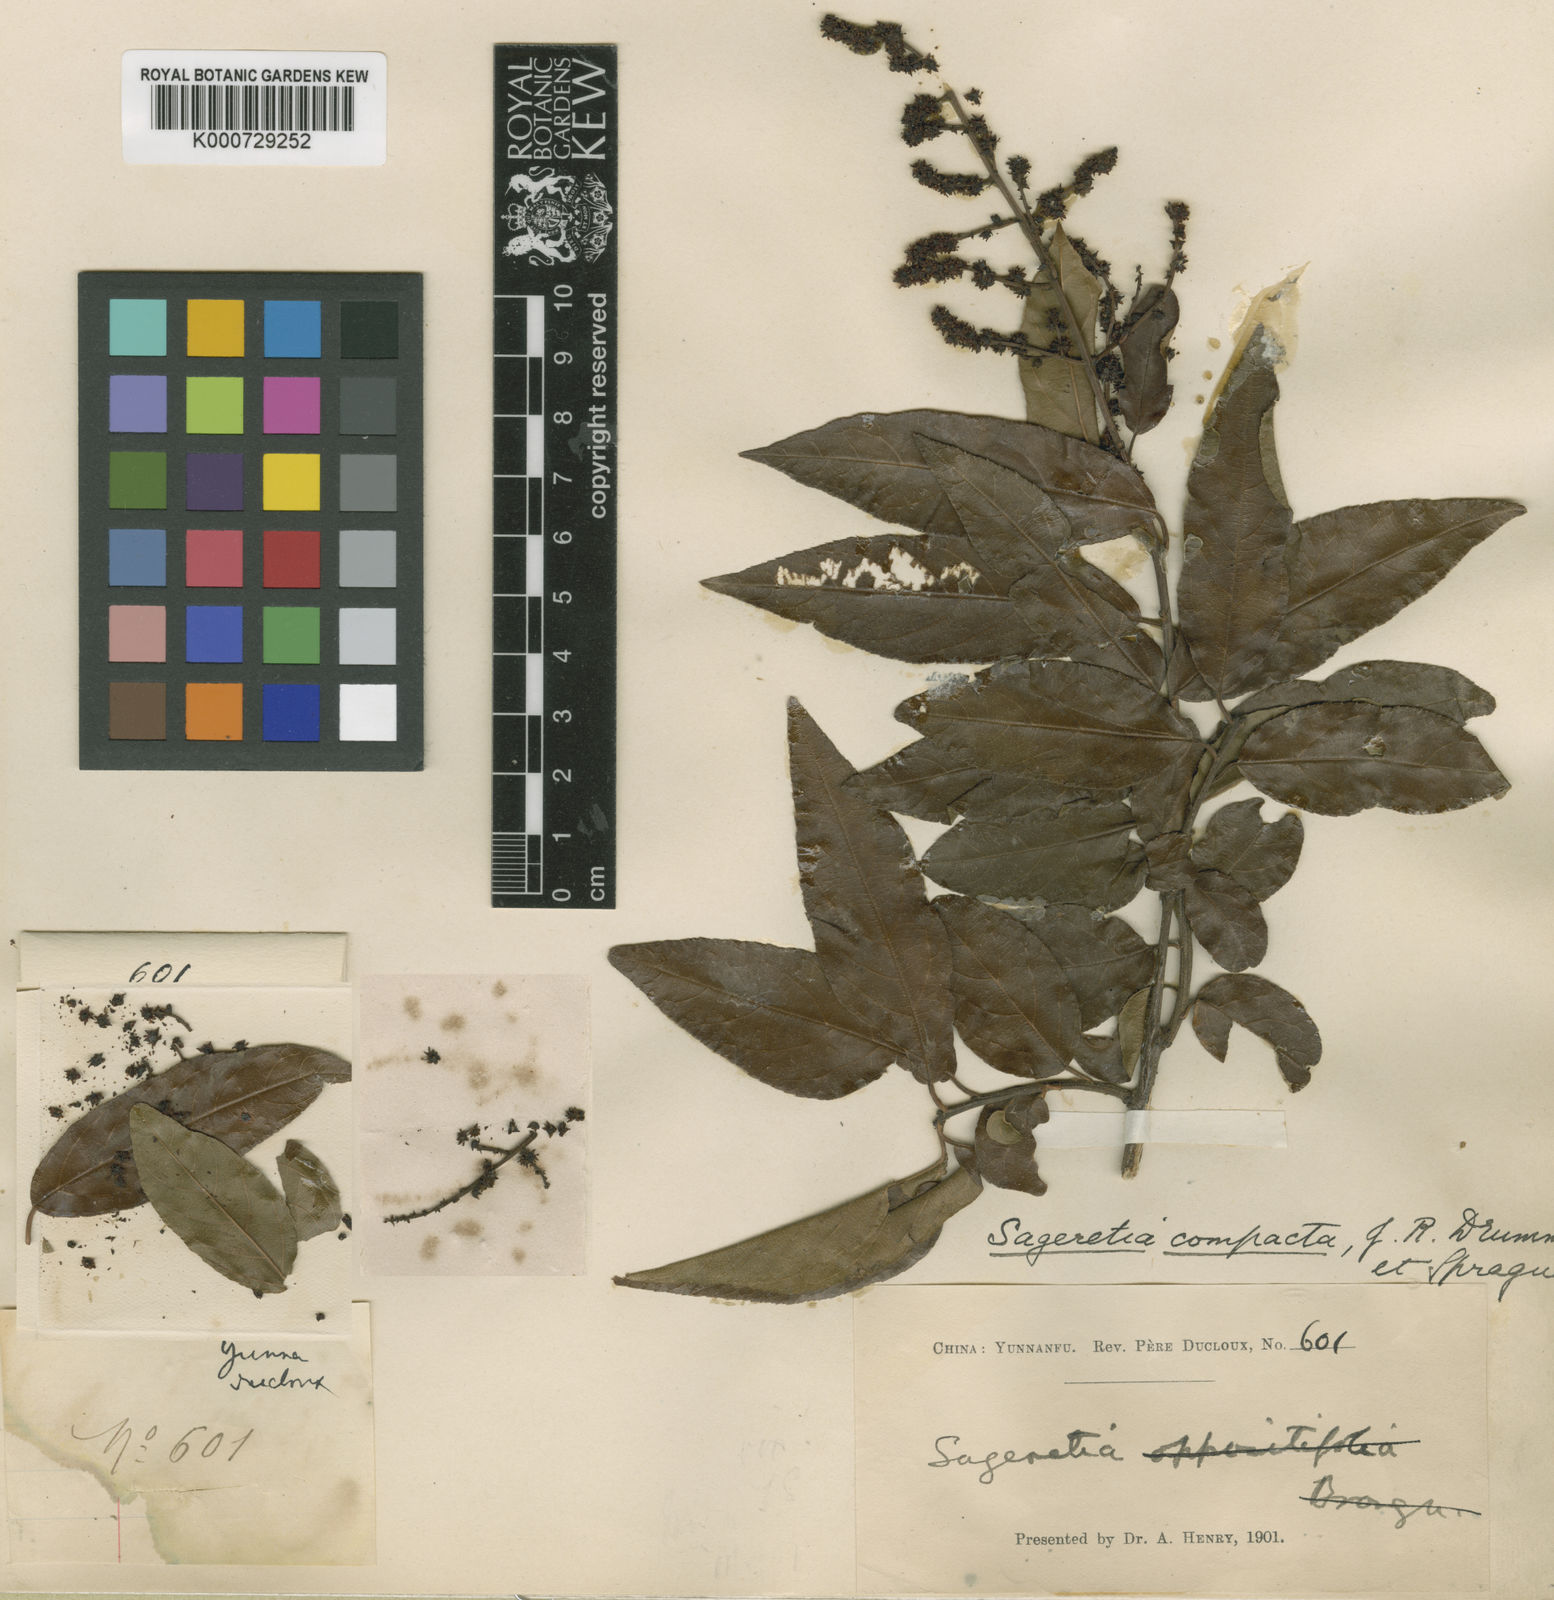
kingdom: Plantae
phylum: Tracheophyta
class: Magnoliopsida
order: Rosales
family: Rhamnaceae
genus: Sageretia
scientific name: Sageretia gracilis
